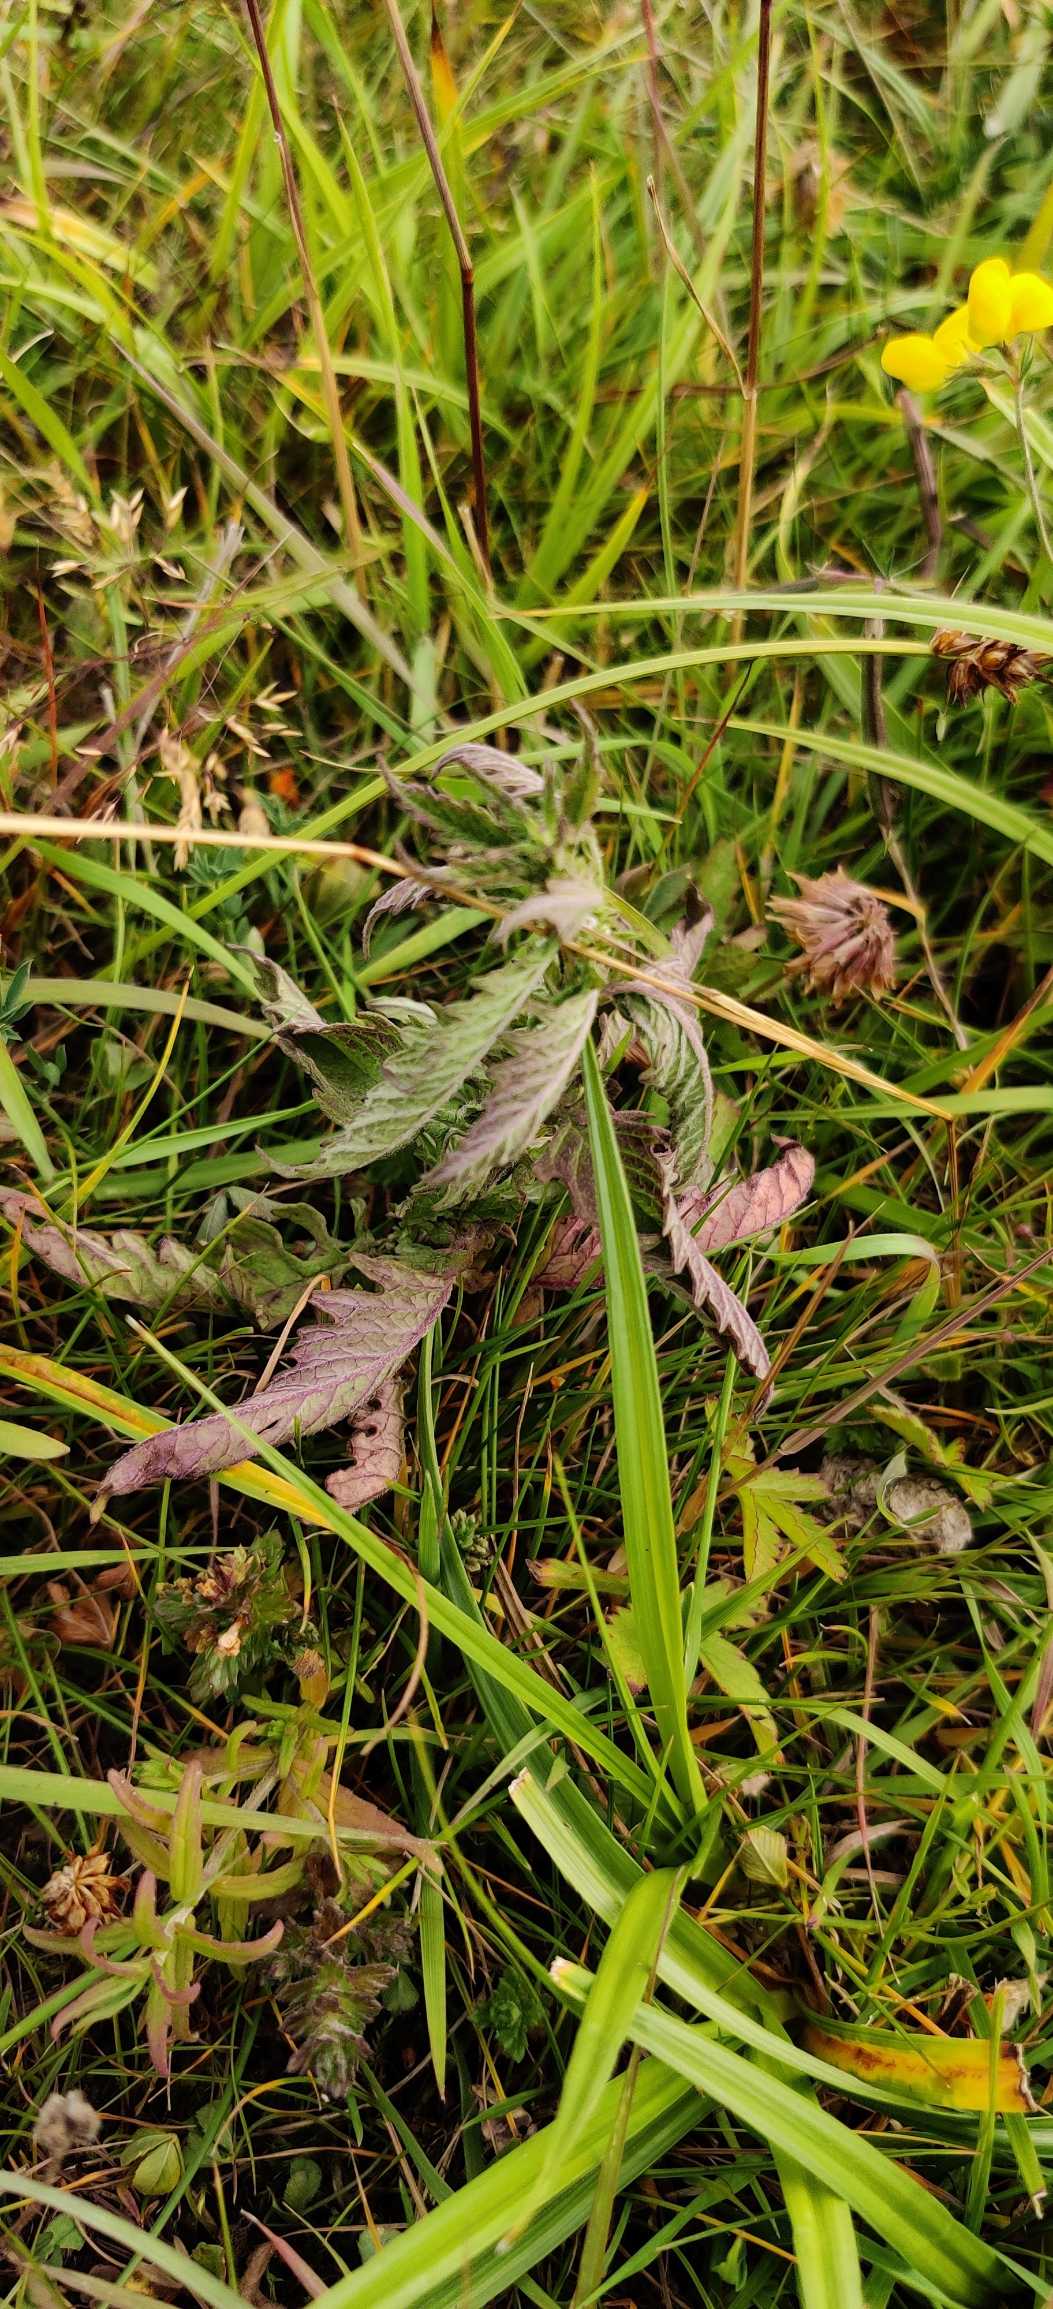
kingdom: Plantae
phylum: Tracheophyta
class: Magnoliopsida
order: Lamiales
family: Lamiaceae
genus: Lycopus
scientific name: Lycopus europaeus
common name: Sværtevæld
